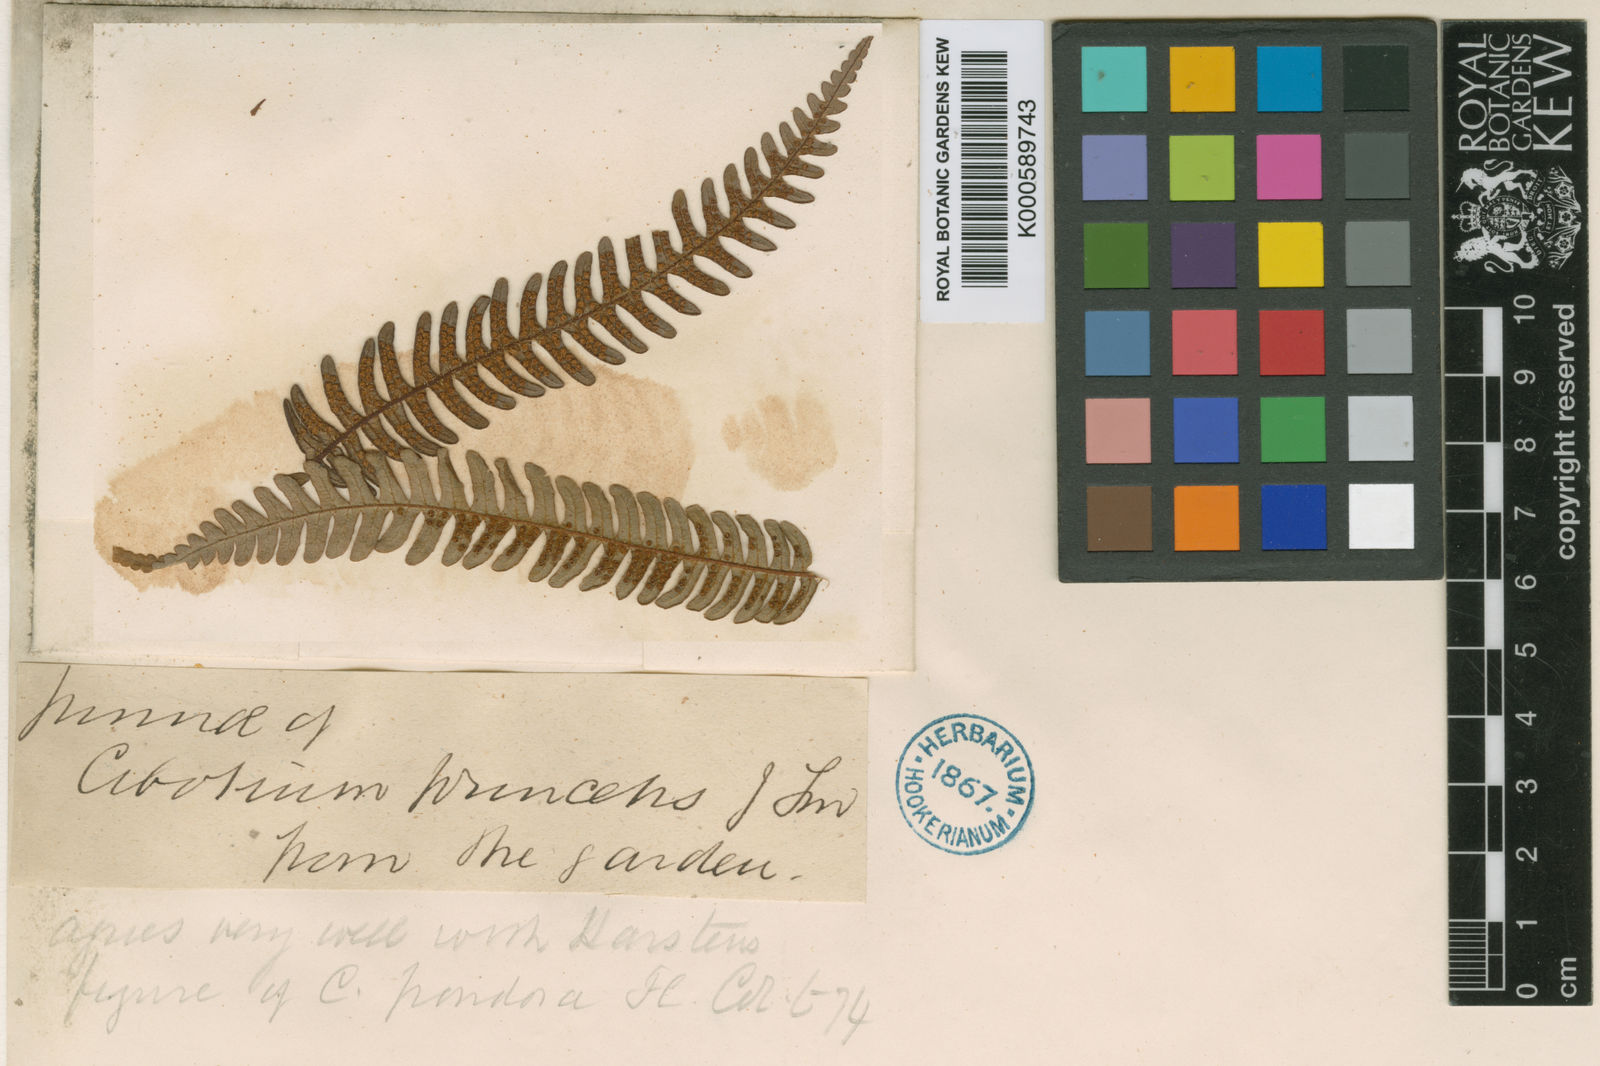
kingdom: Plantae
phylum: Tracheophyta
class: Polypodiopsida
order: Cyatheales
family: Cyatheaceae
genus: Cyathea
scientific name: Cyathea horrida
